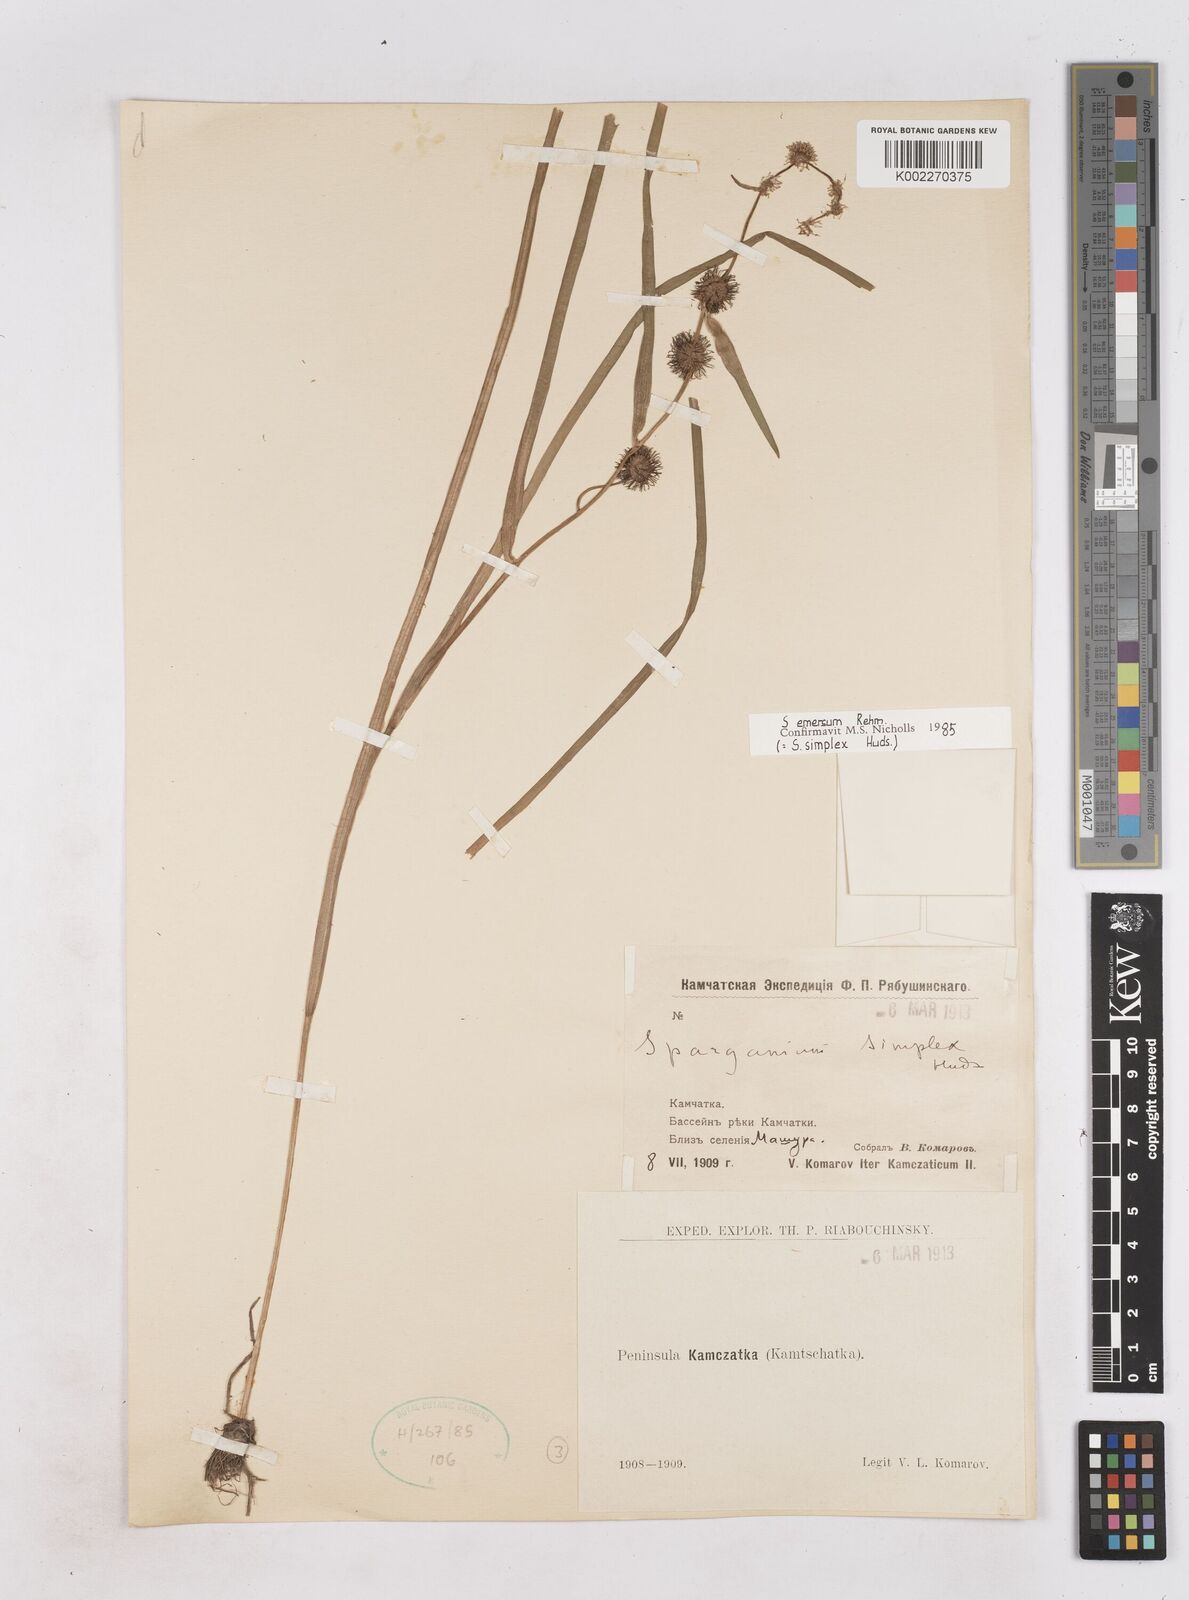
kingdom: Plantae
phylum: Tracheophyta
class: Liliopsida
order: Poales
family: Typhaceae
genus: Sparganium
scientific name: Sparganium angustifolium
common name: Floating bur-reed
